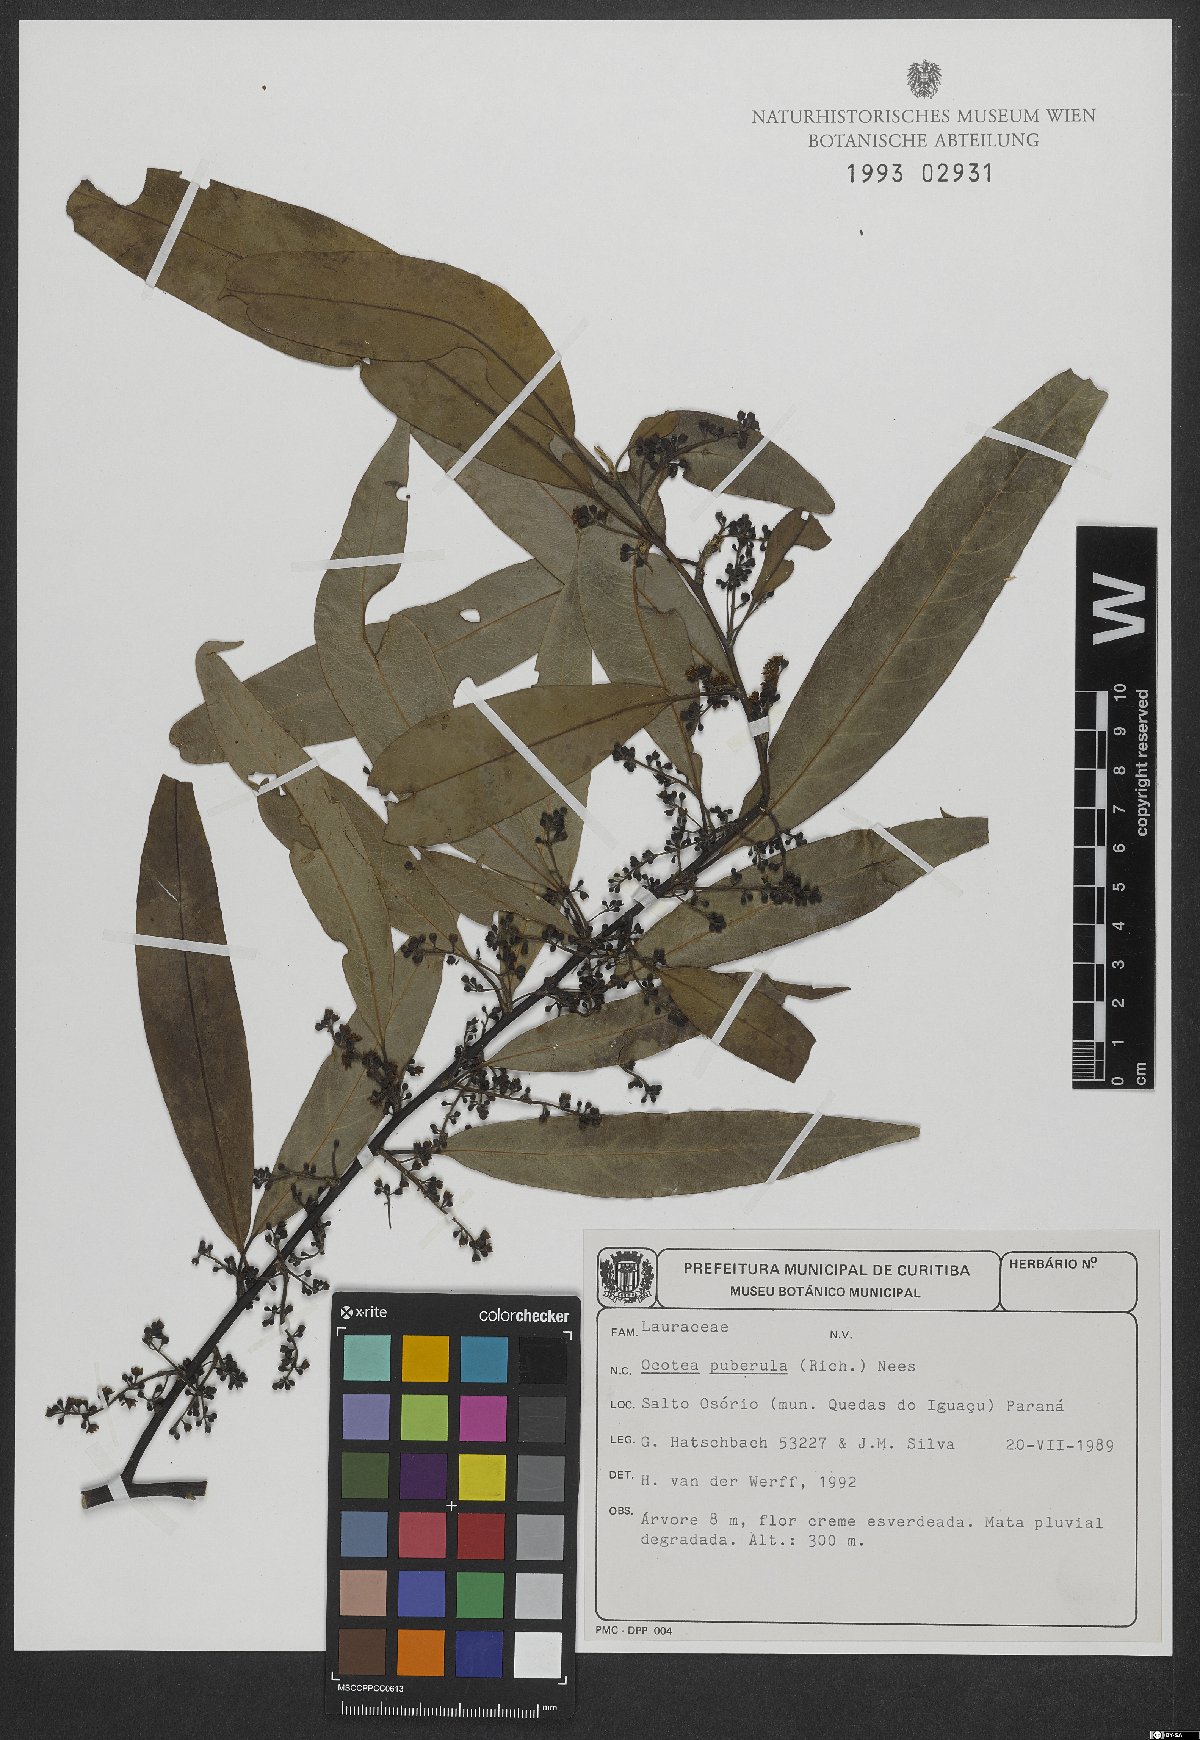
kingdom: Plantae
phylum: Tracheophyta
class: Magnoliopsida
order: Laurales
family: Lauraceae
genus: Ocotea
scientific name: Ocotea puberula
